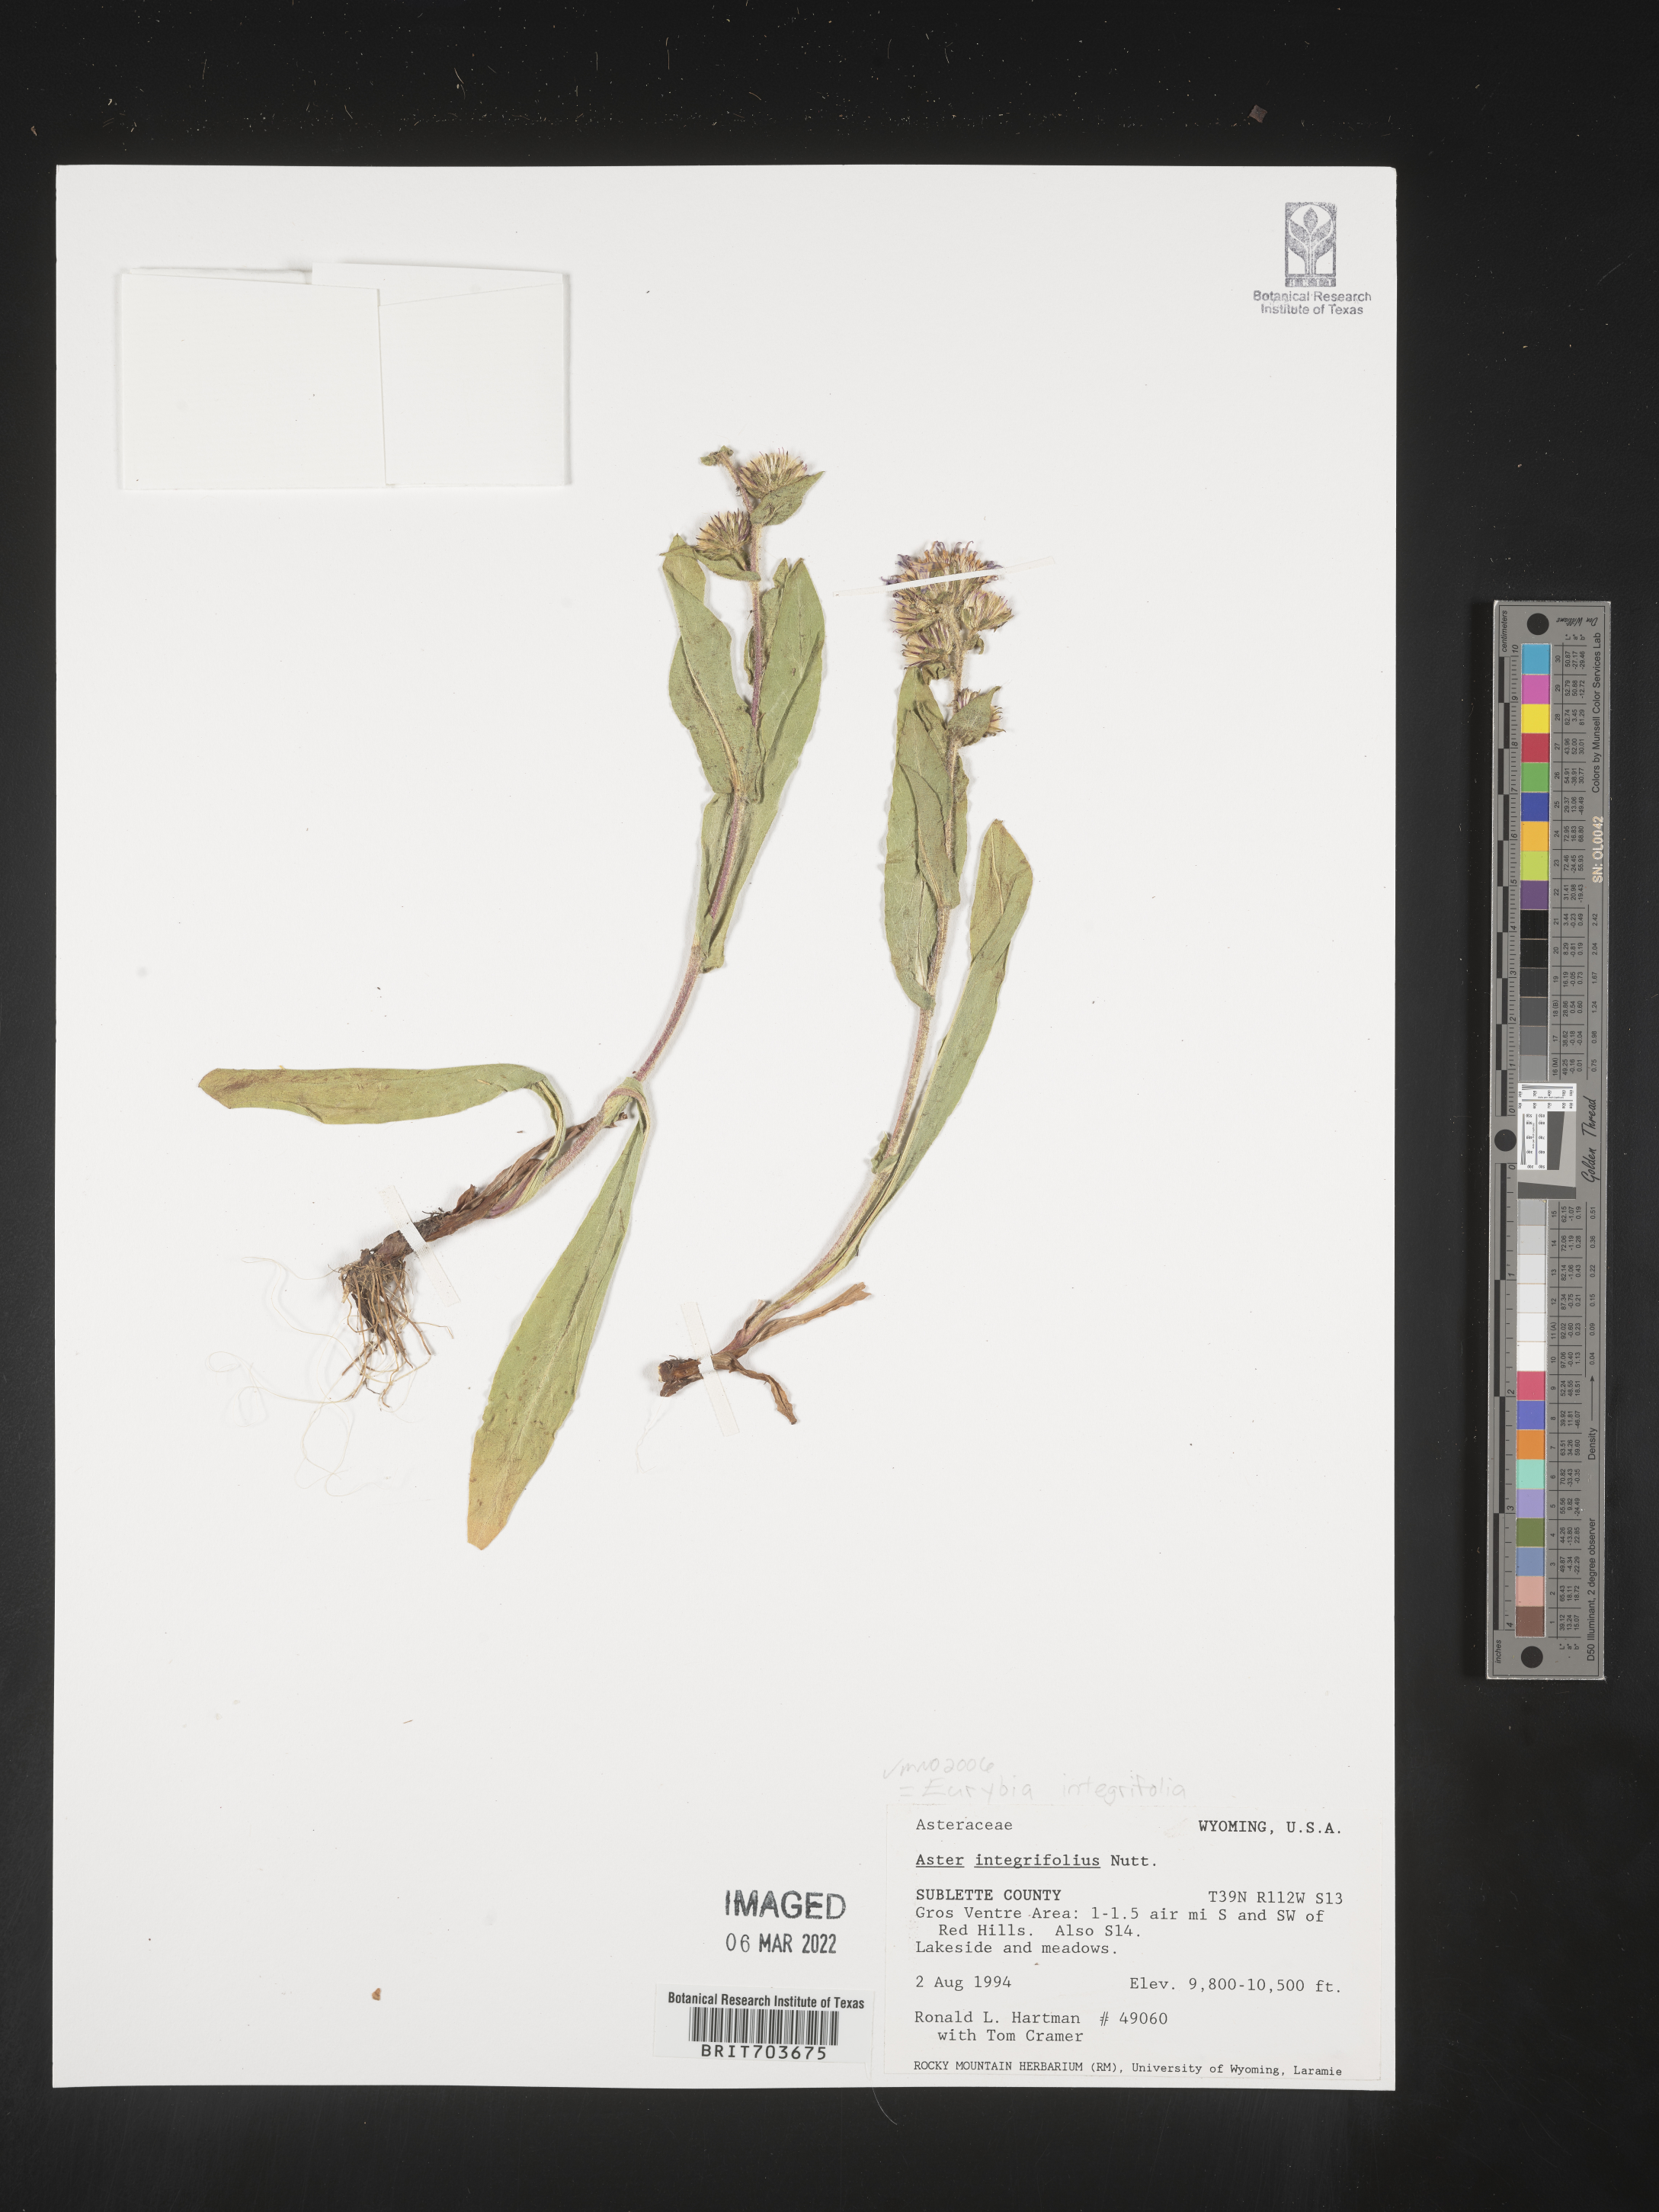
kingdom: Plantae
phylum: Tracheophyta
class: Magnoliopsida
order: Asterales
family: Asteraceae
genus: Eurybia
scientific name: Eurybia integrifolia
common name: Thick-stem aster
